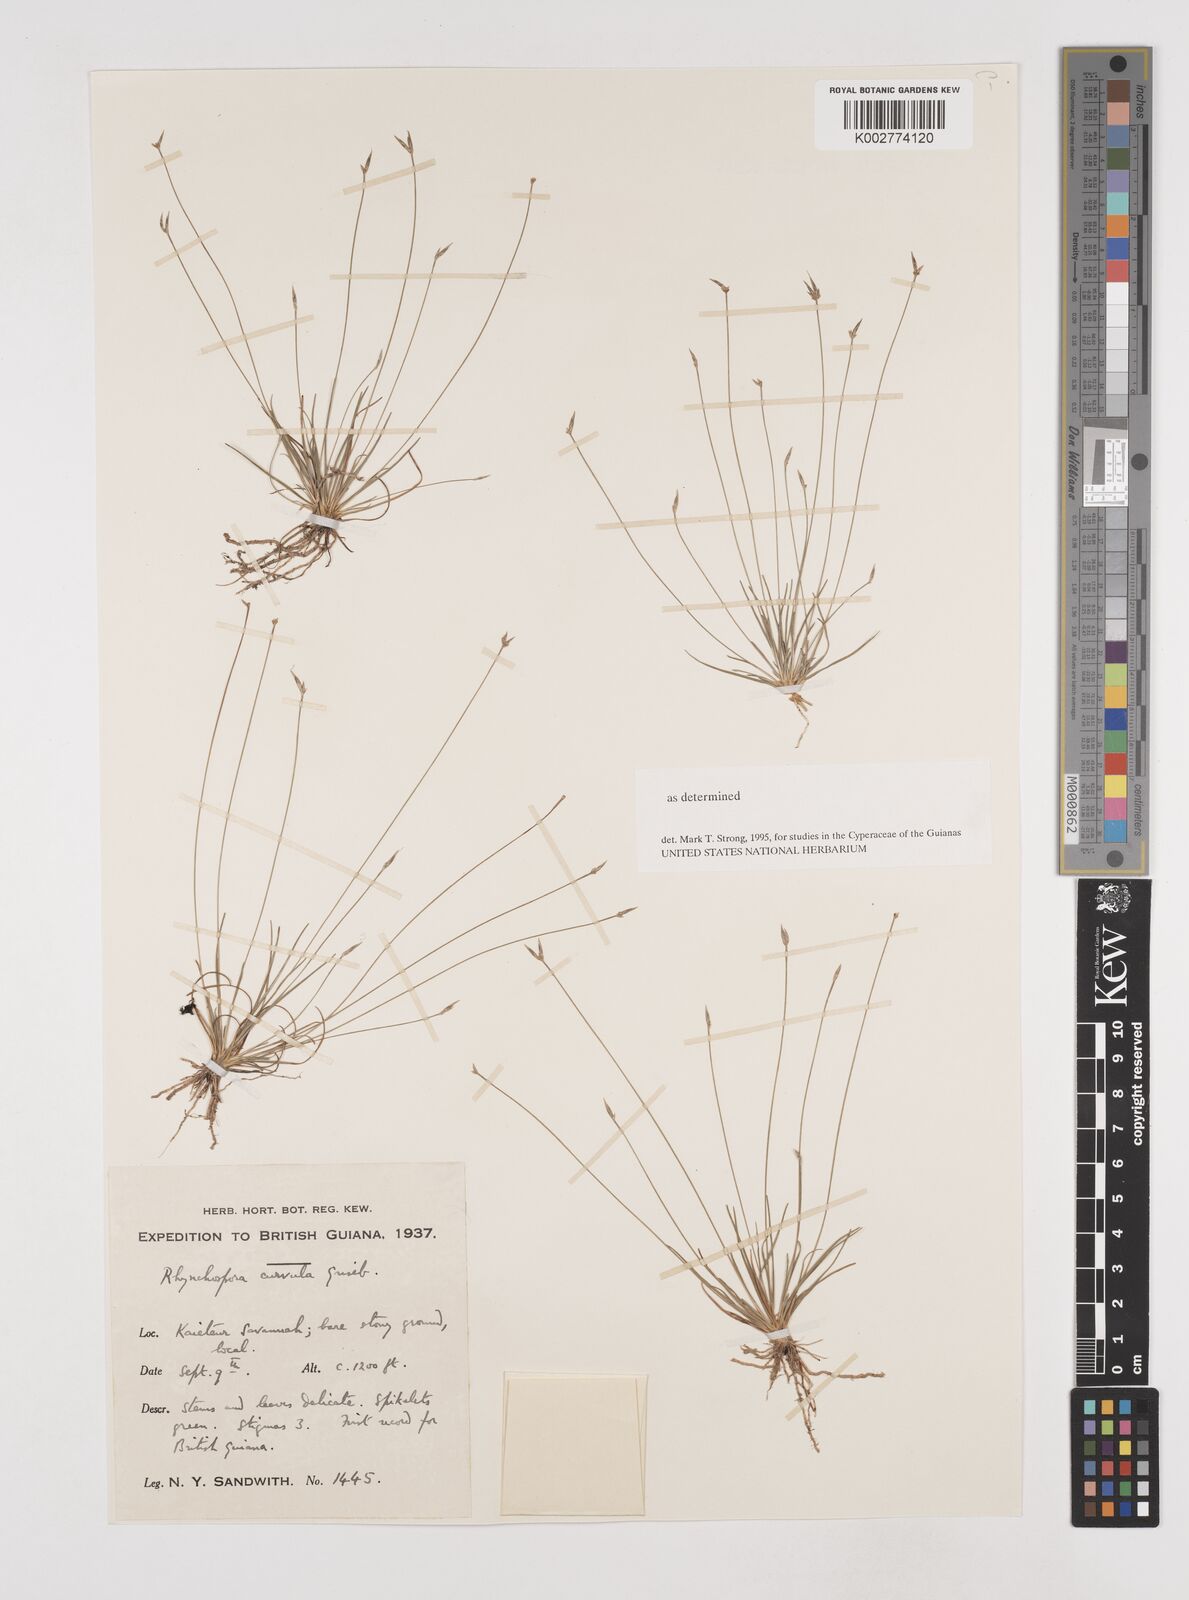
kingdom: Plantae
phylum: Tracheophyta
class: Liliopsida
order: Poales
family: Cyperaceae
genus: Rhynchospora
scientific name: Rhynchospora curvula
